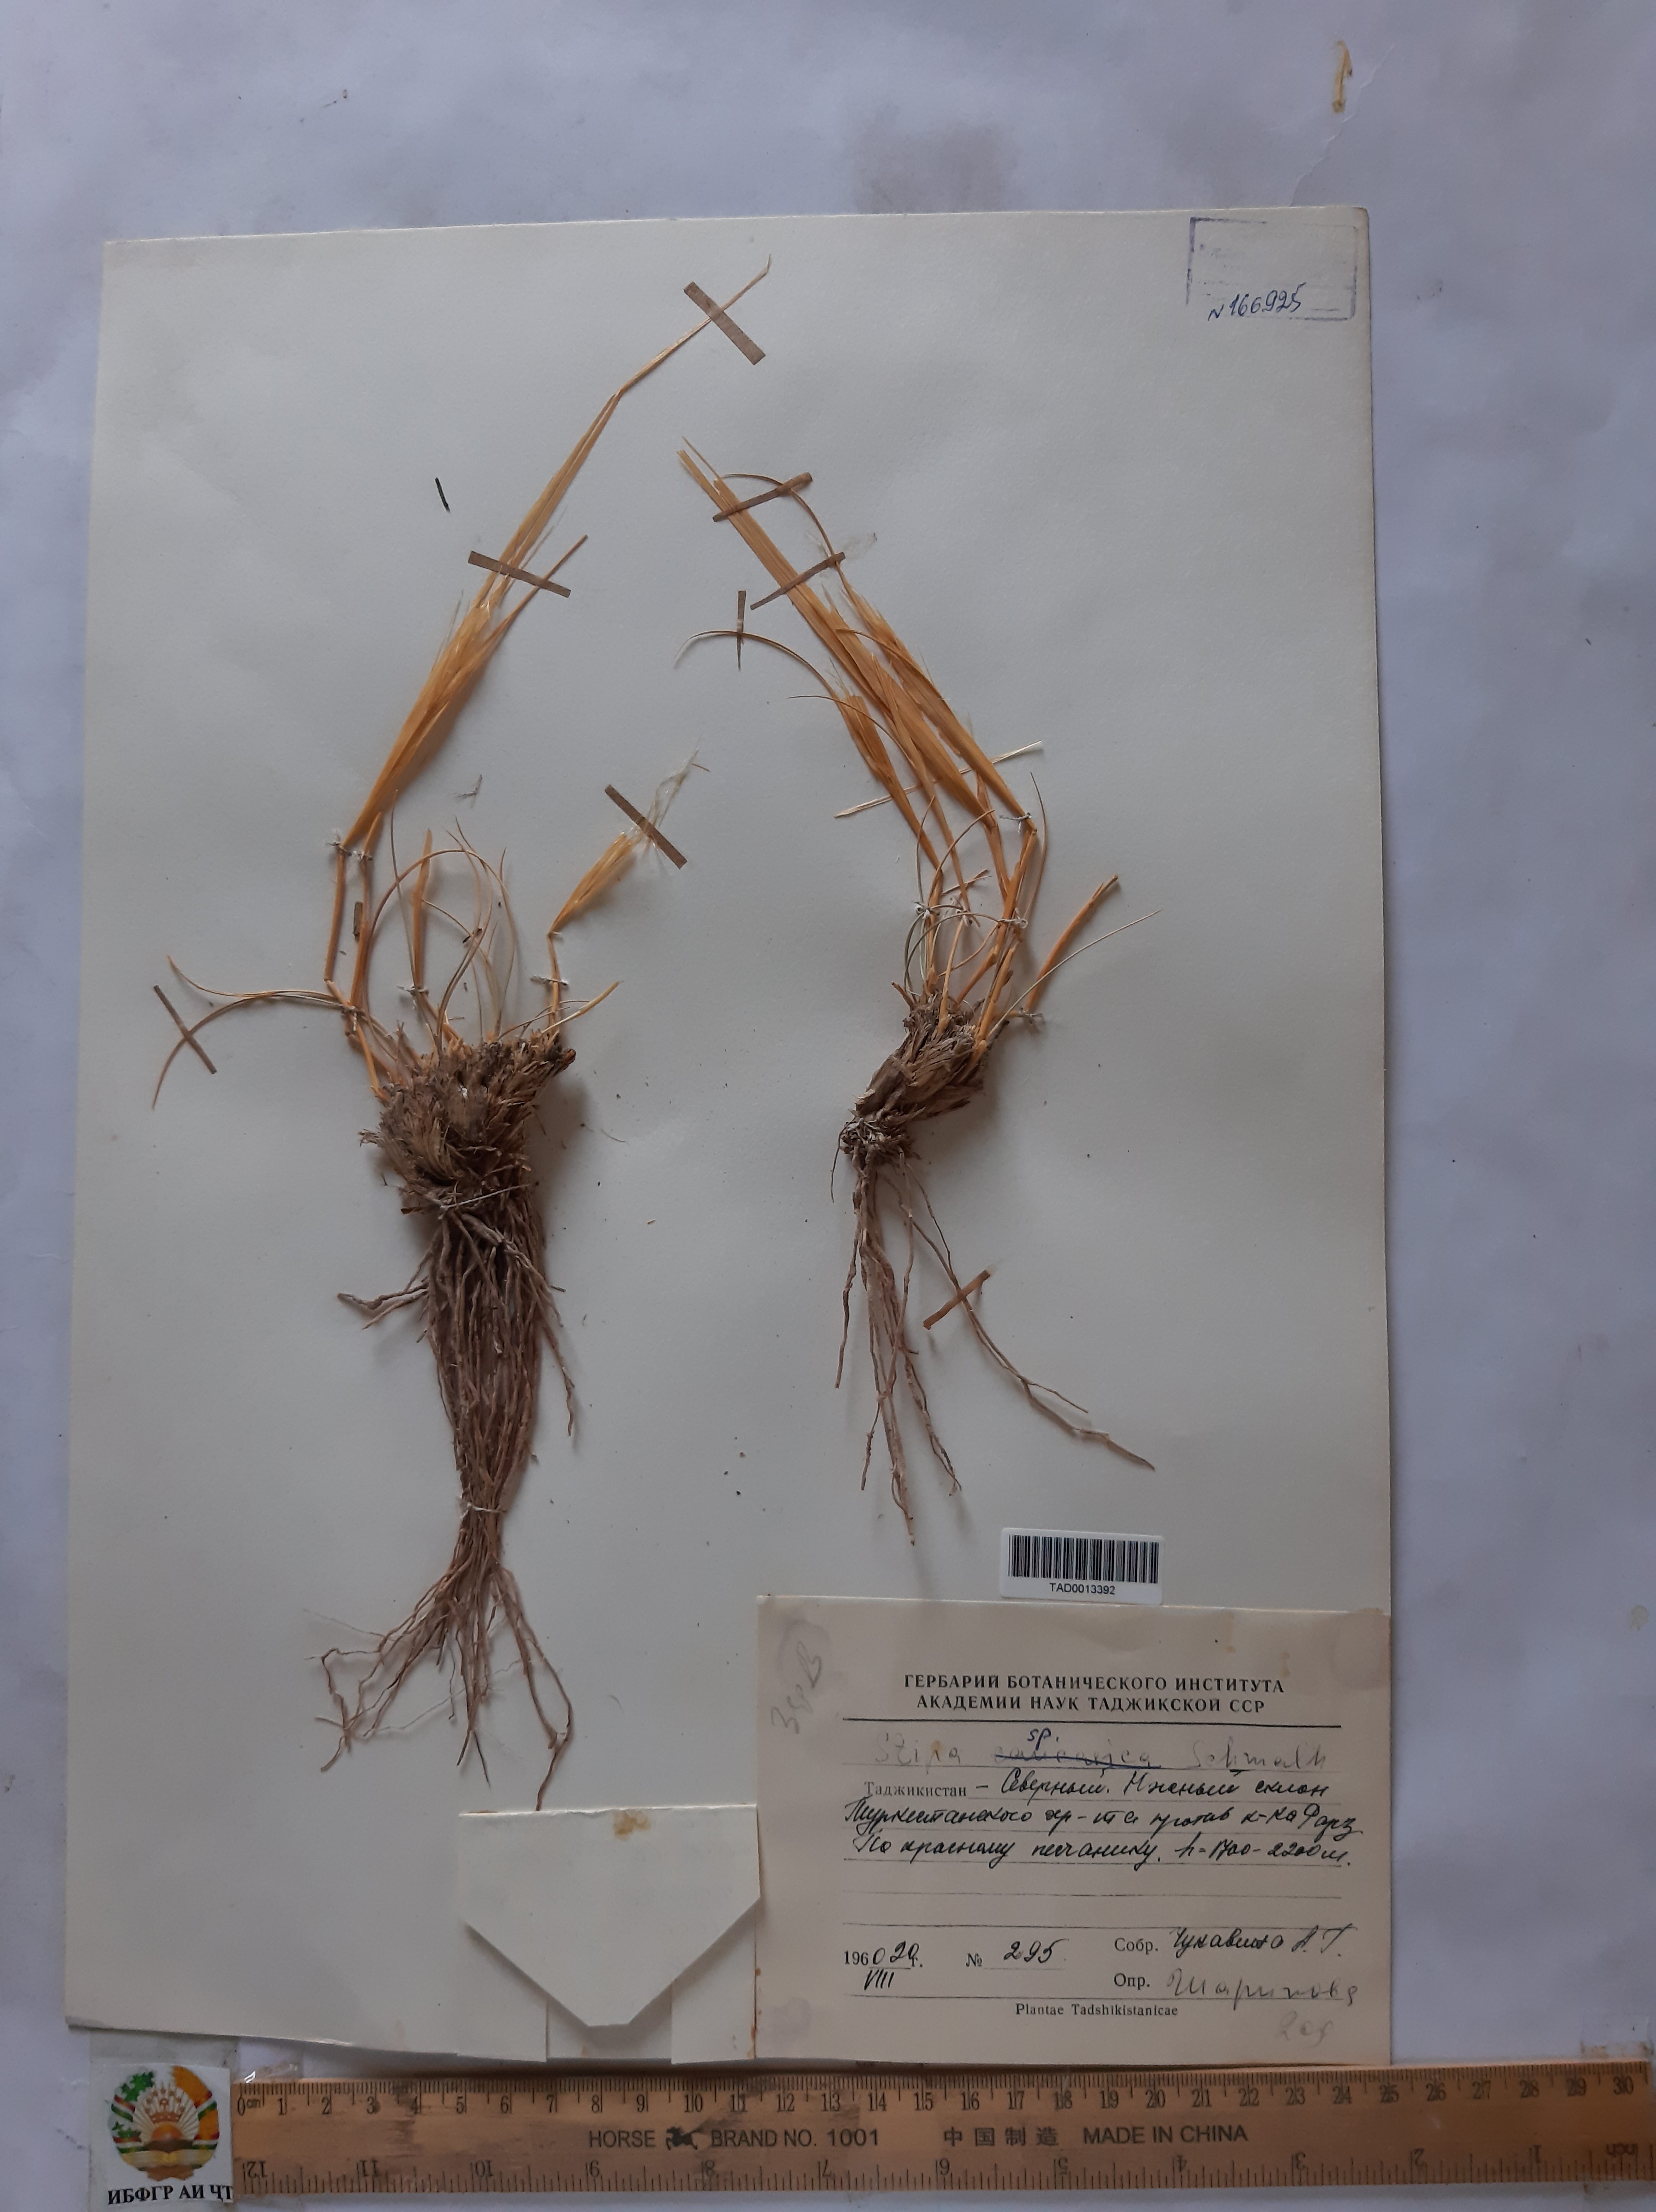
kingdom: Plantae
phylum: Tracheophyta
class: Liliopsida
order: Poales
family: Poaceae
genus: Stipa
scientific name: Stipa caucasica
